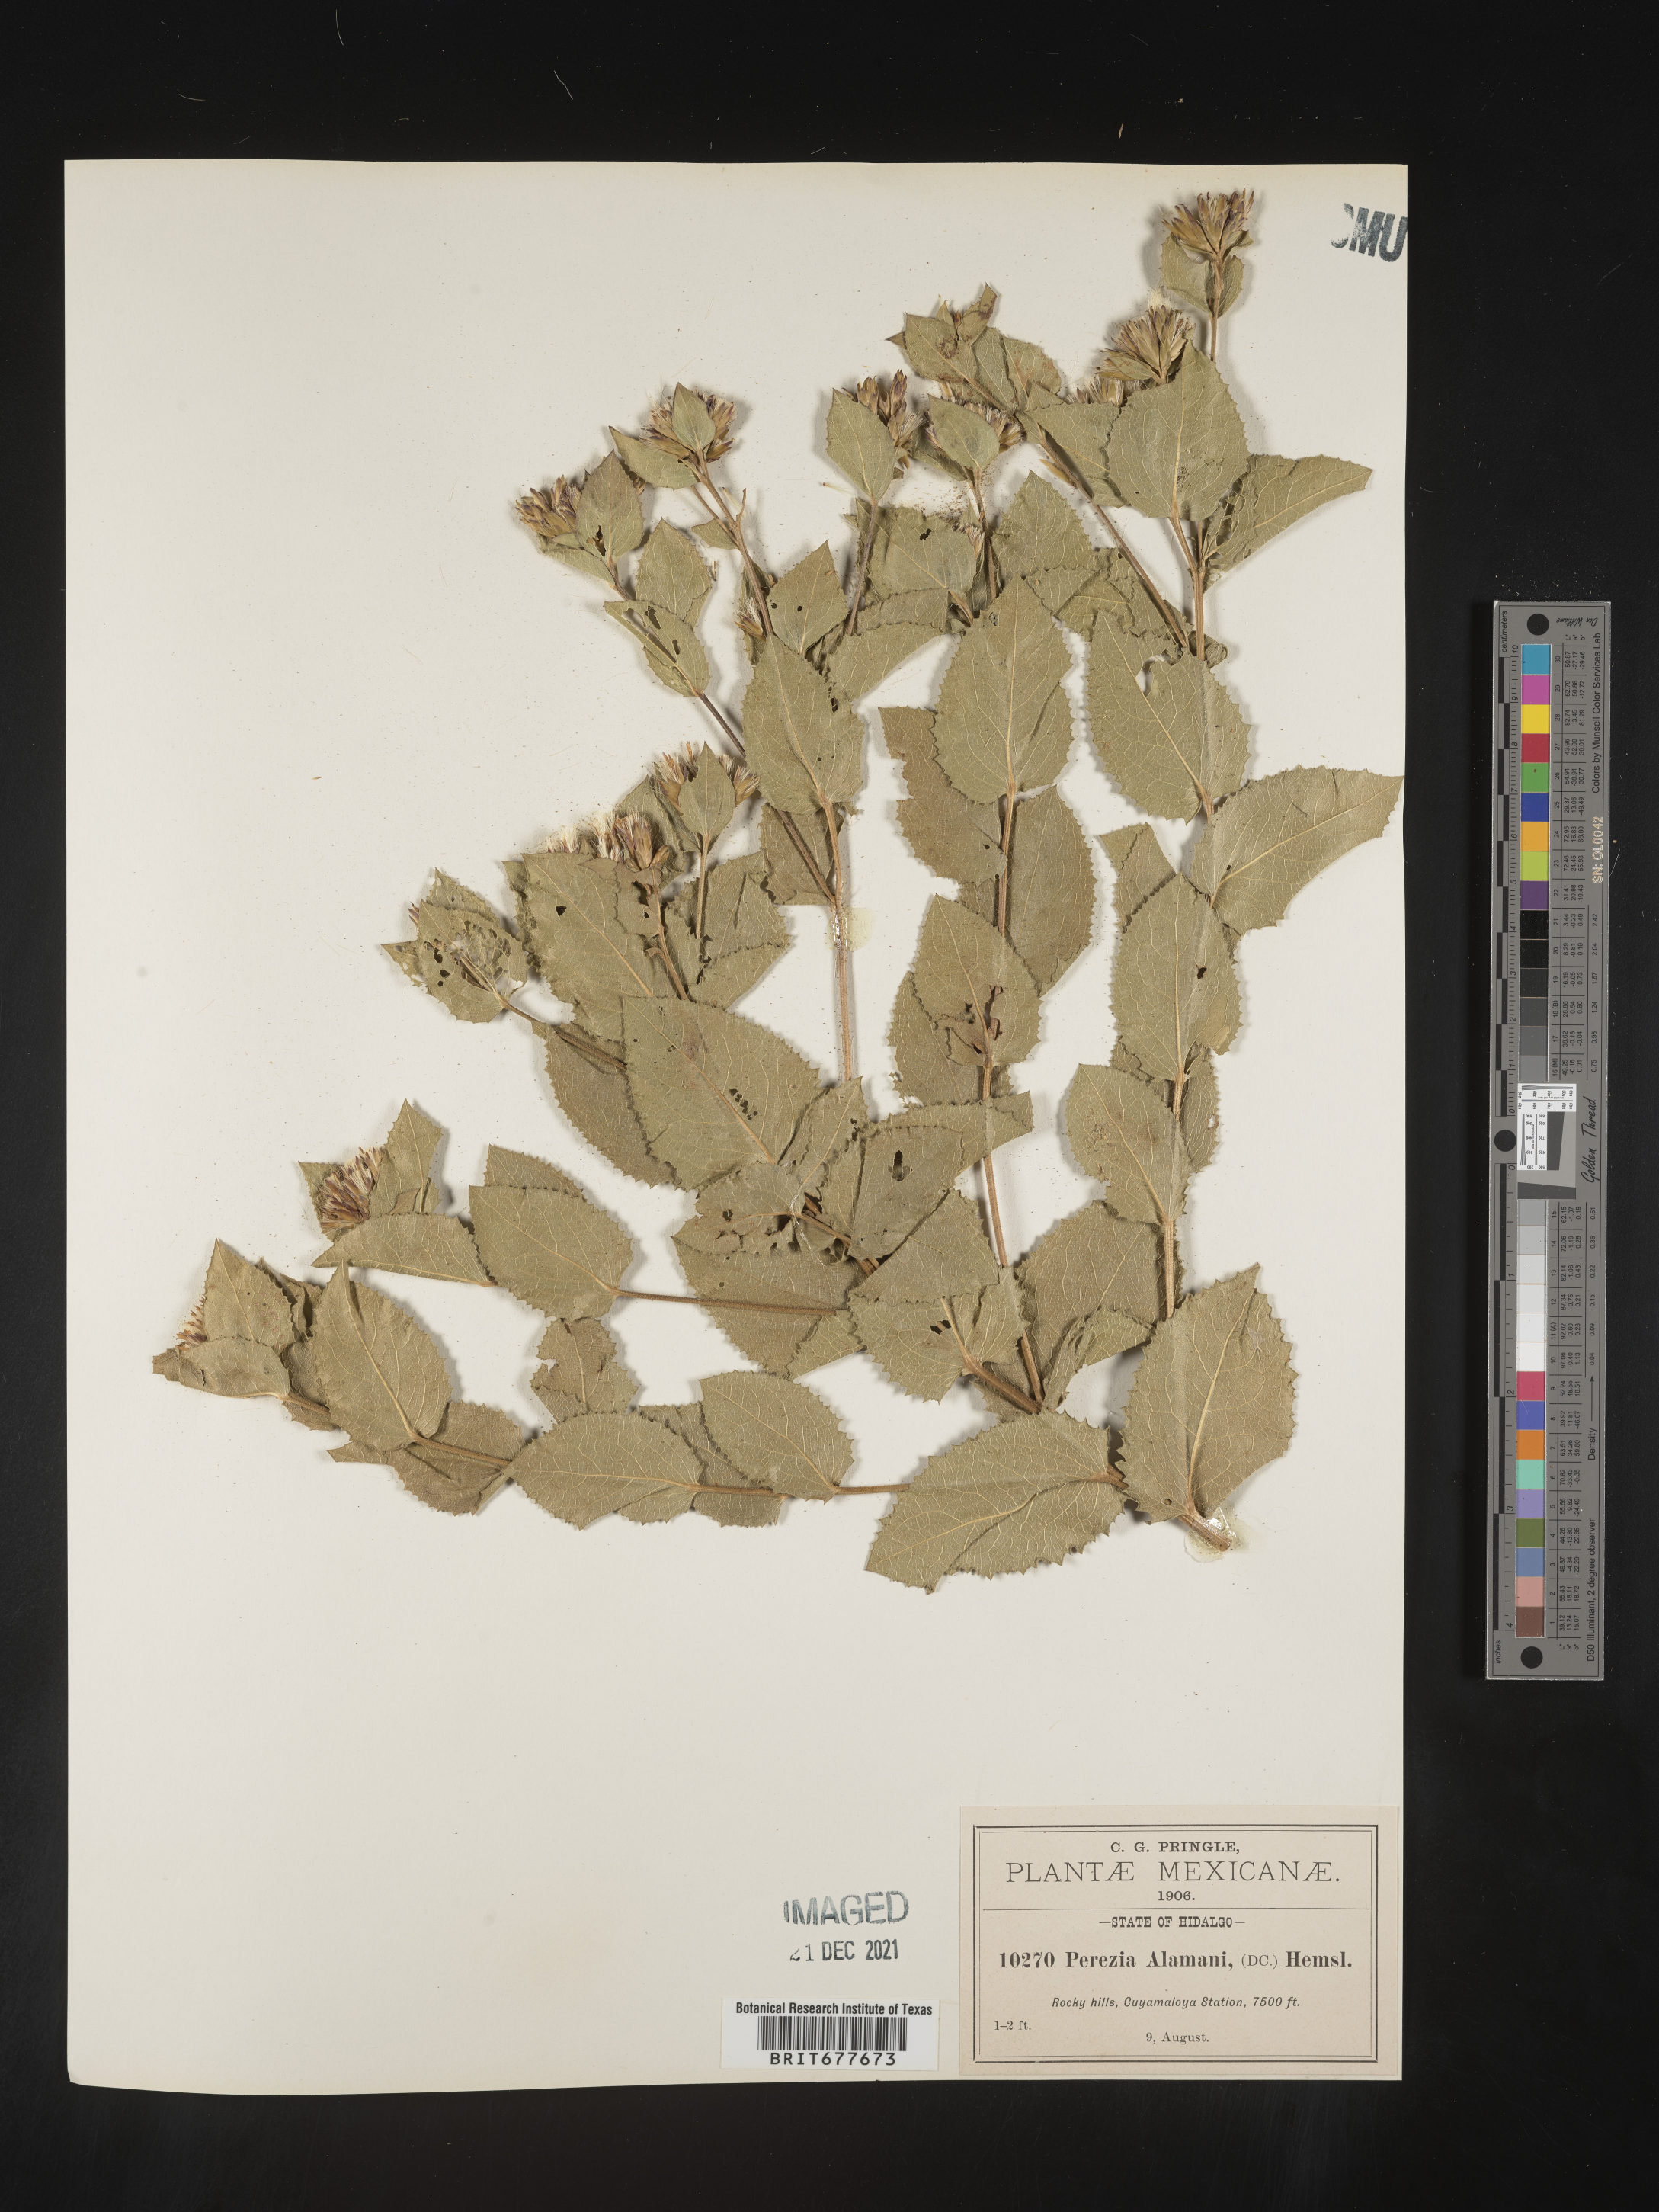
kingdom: Plantae
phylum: Tracheophyta
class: Magnoliopsida
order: Asterales
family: Asteraceae
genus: Perezia
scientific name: Perezia
